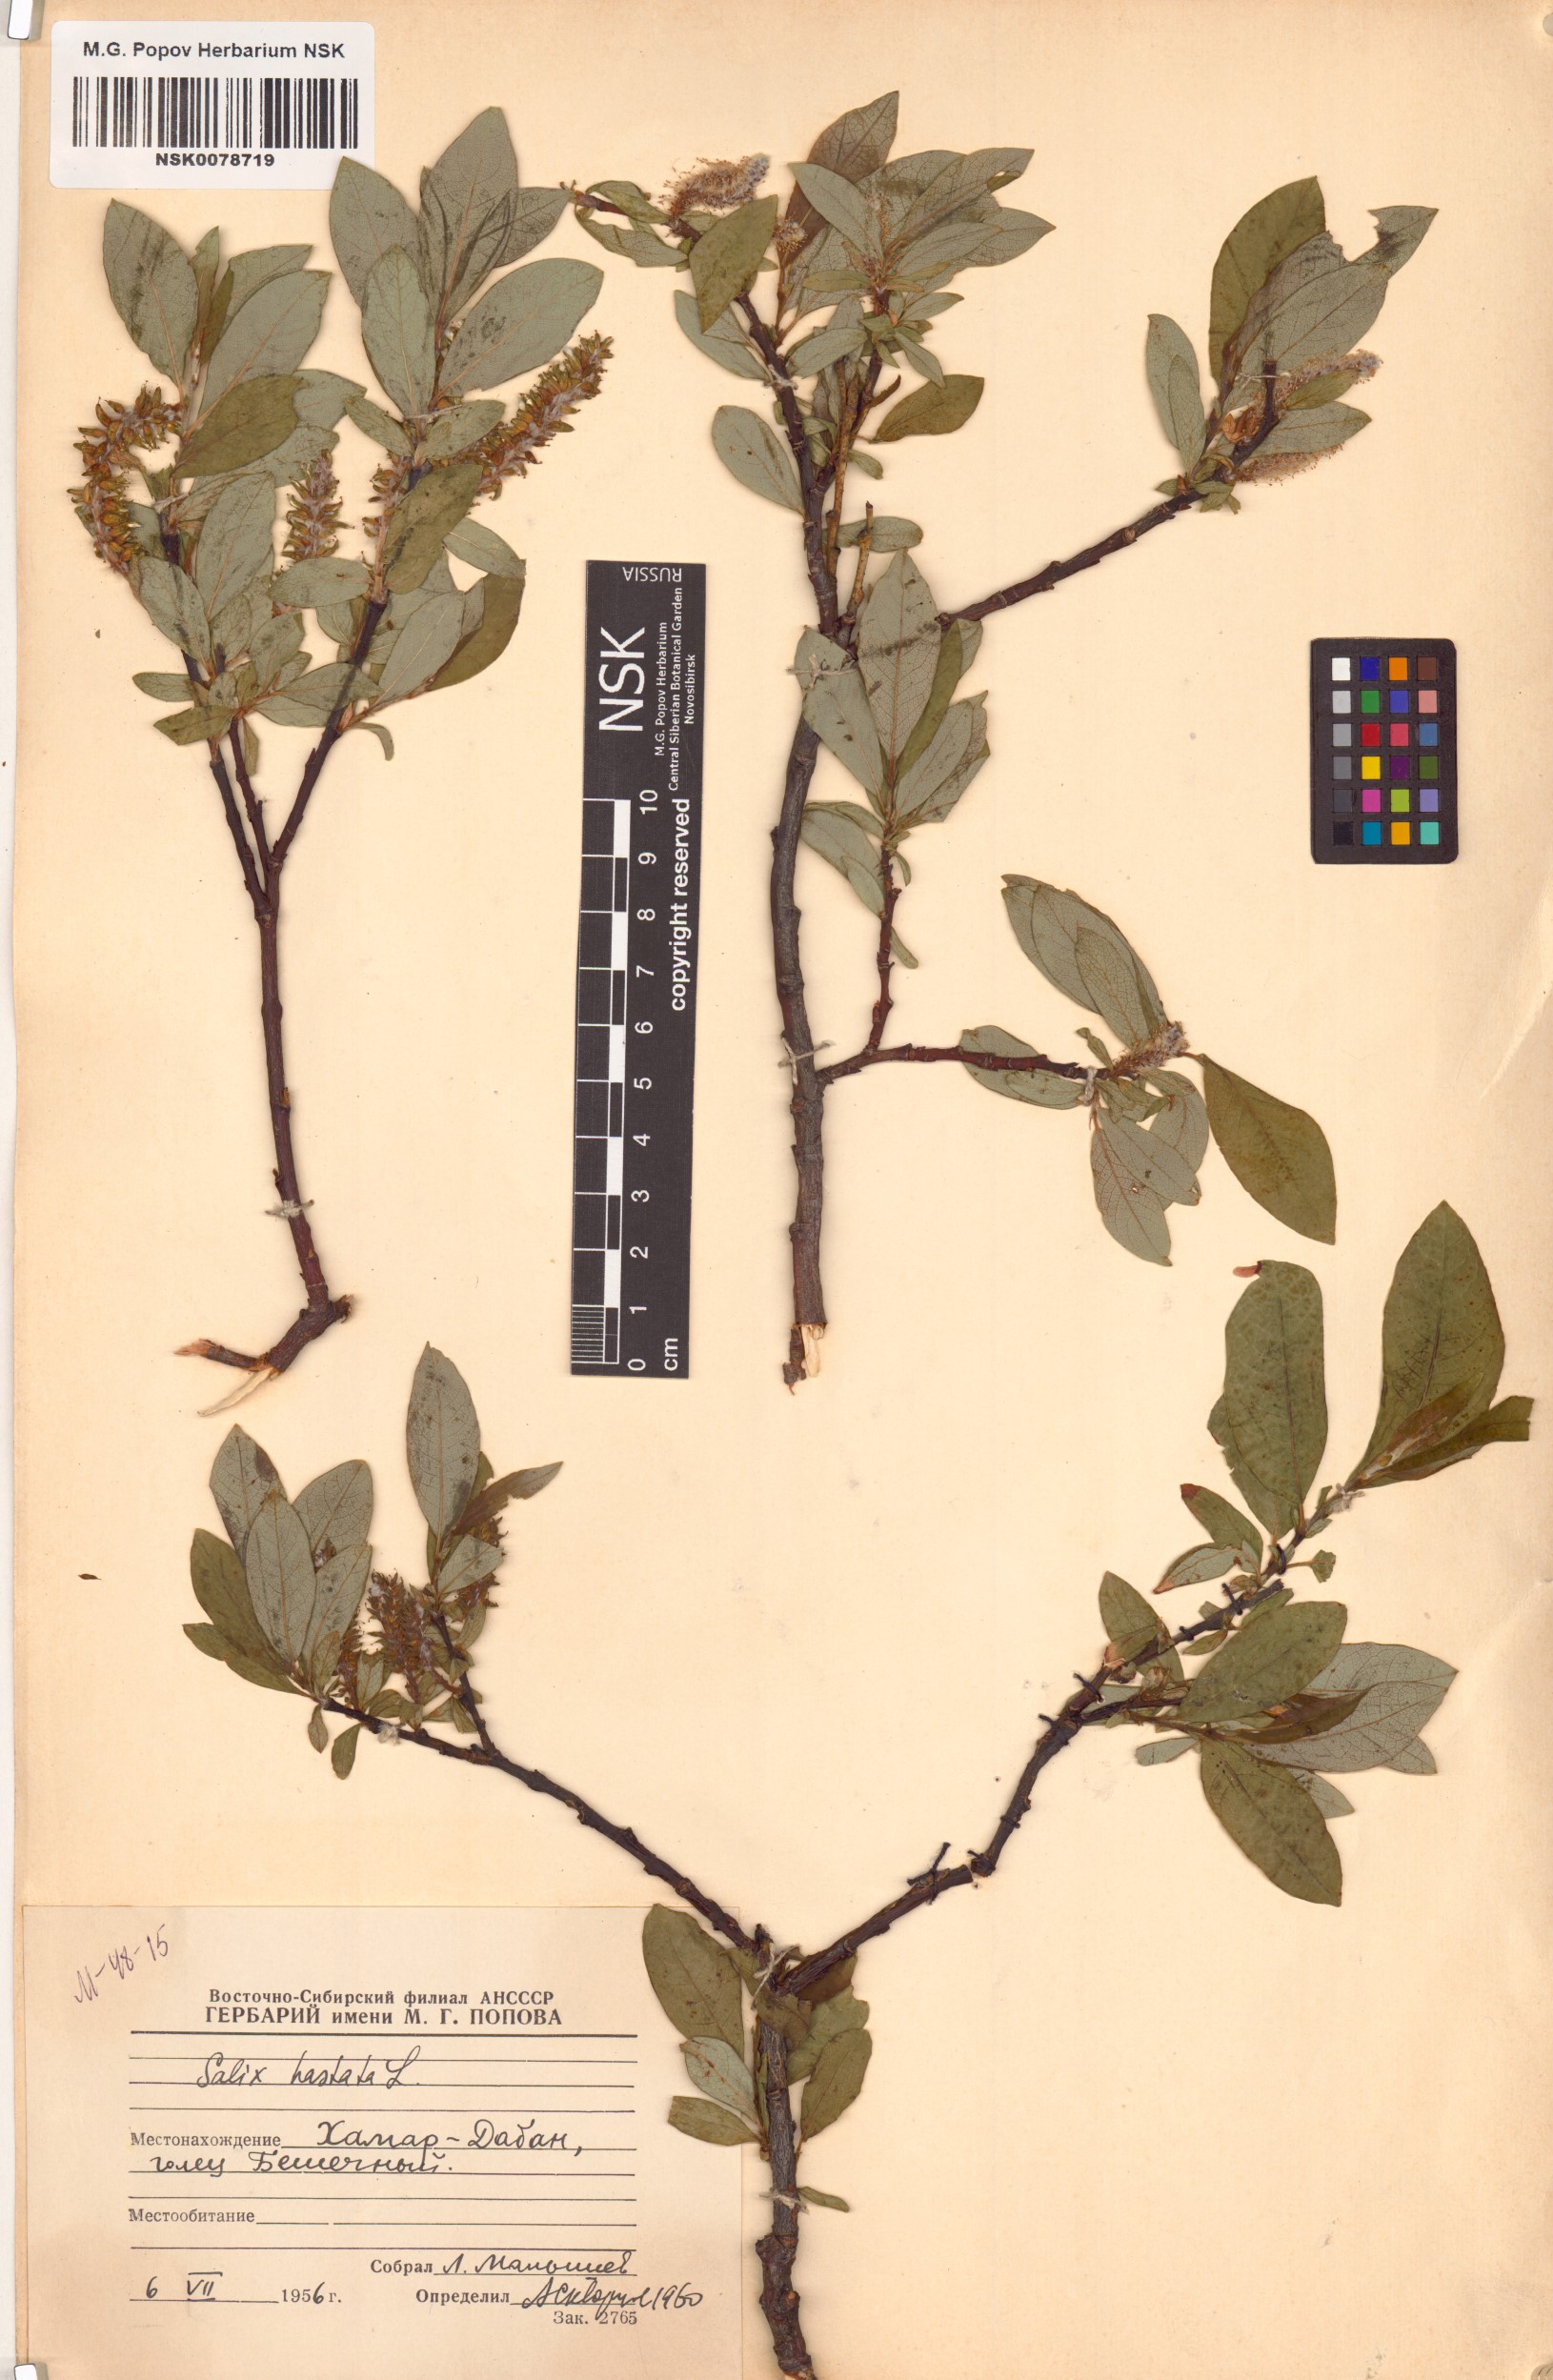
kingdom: Plantae
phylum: Tracheophyta
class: Magnoliopsida
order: Malpighiales
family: Salicaceae
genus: Salix
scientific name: Salix hastata
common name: Halberd willow
